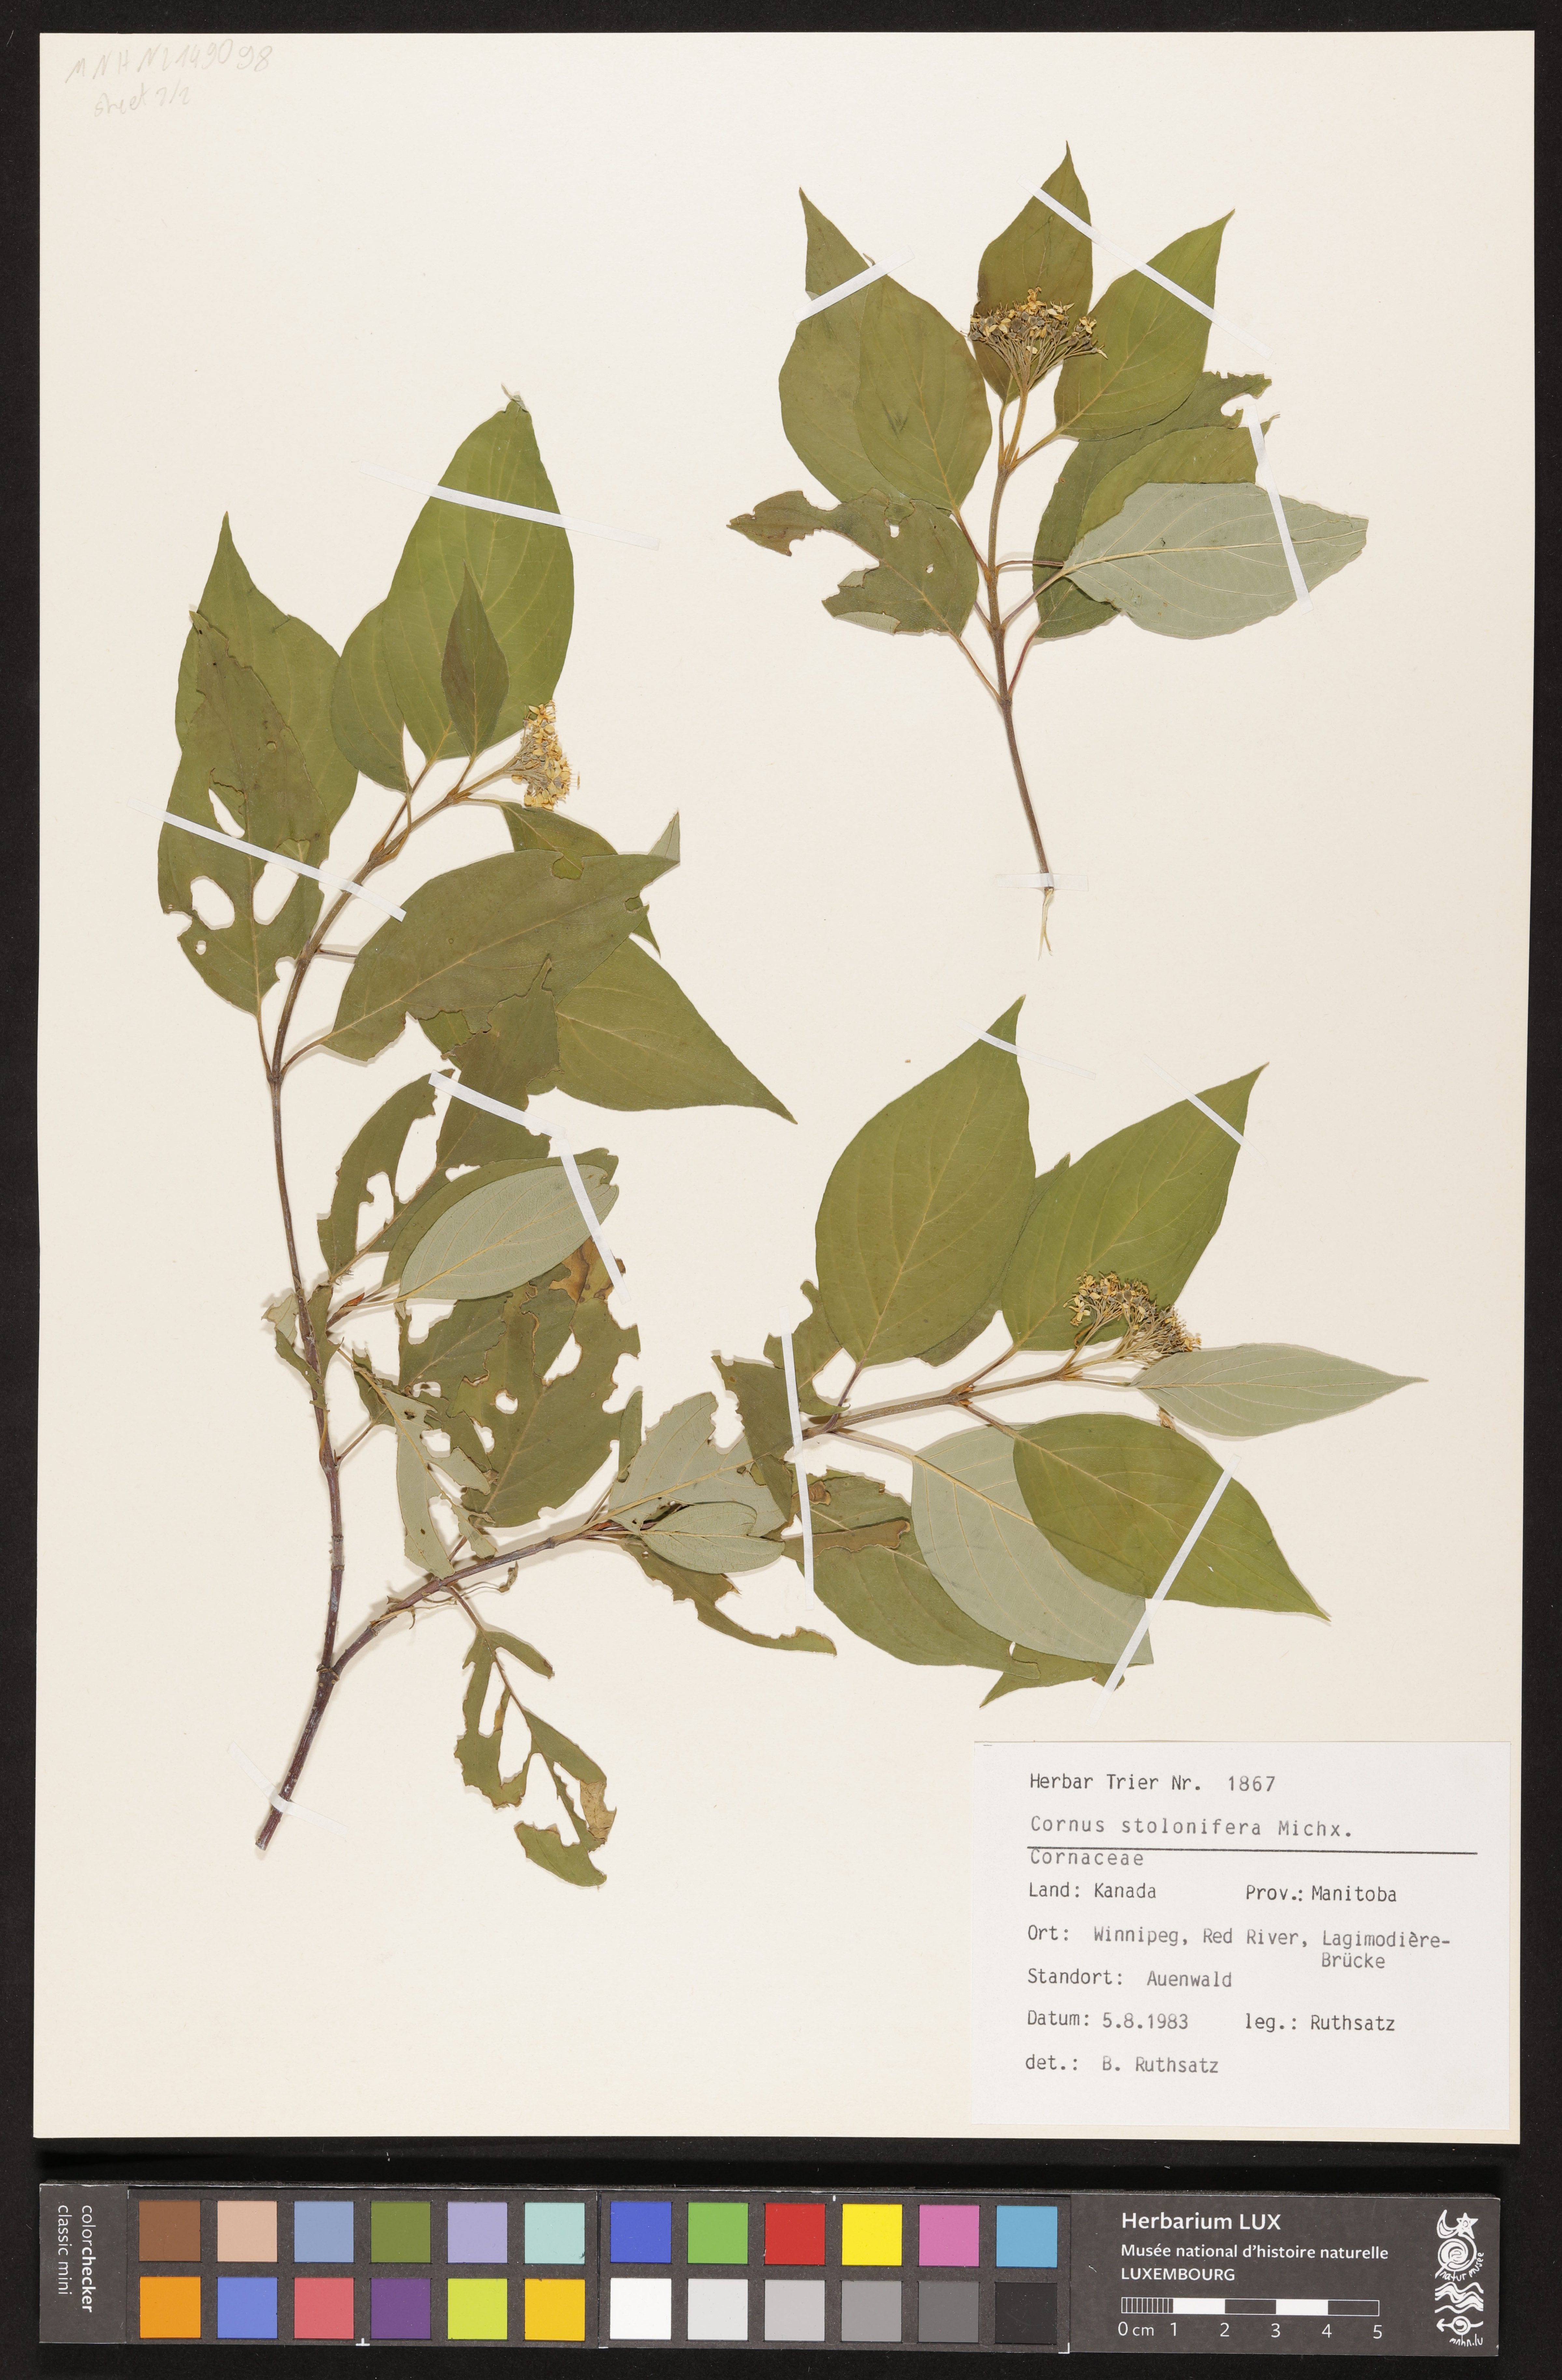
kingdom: Plantae
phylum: Tracheophyta
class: Magnoliopsida
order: Cornales
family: Cornaceae
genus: Cornus
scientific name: Cornus sericea
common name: Red-osier dogwood
